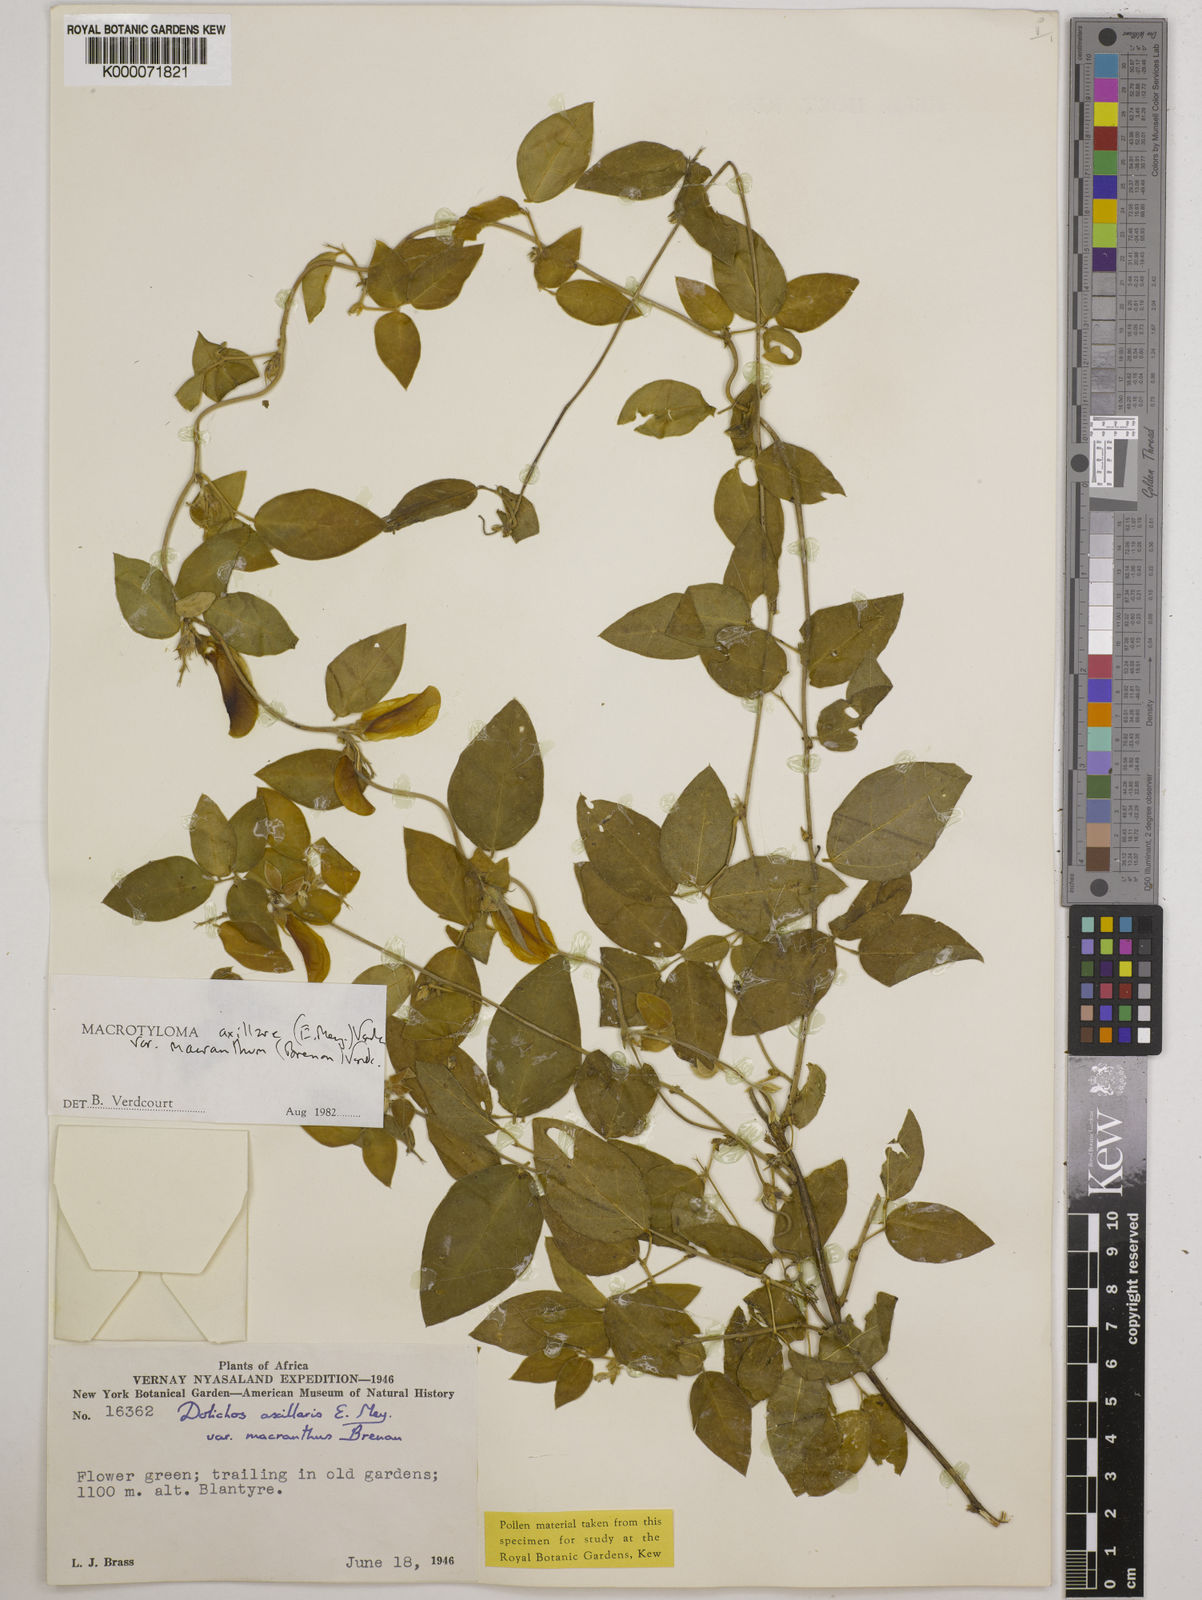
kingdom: Plantae
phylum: Tracheophyta
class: Magnoliopsida
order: Fabales
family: Fabaceae
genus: Macrotyloma
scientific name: Macrotyloma axillare
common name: Perennial horsegram
